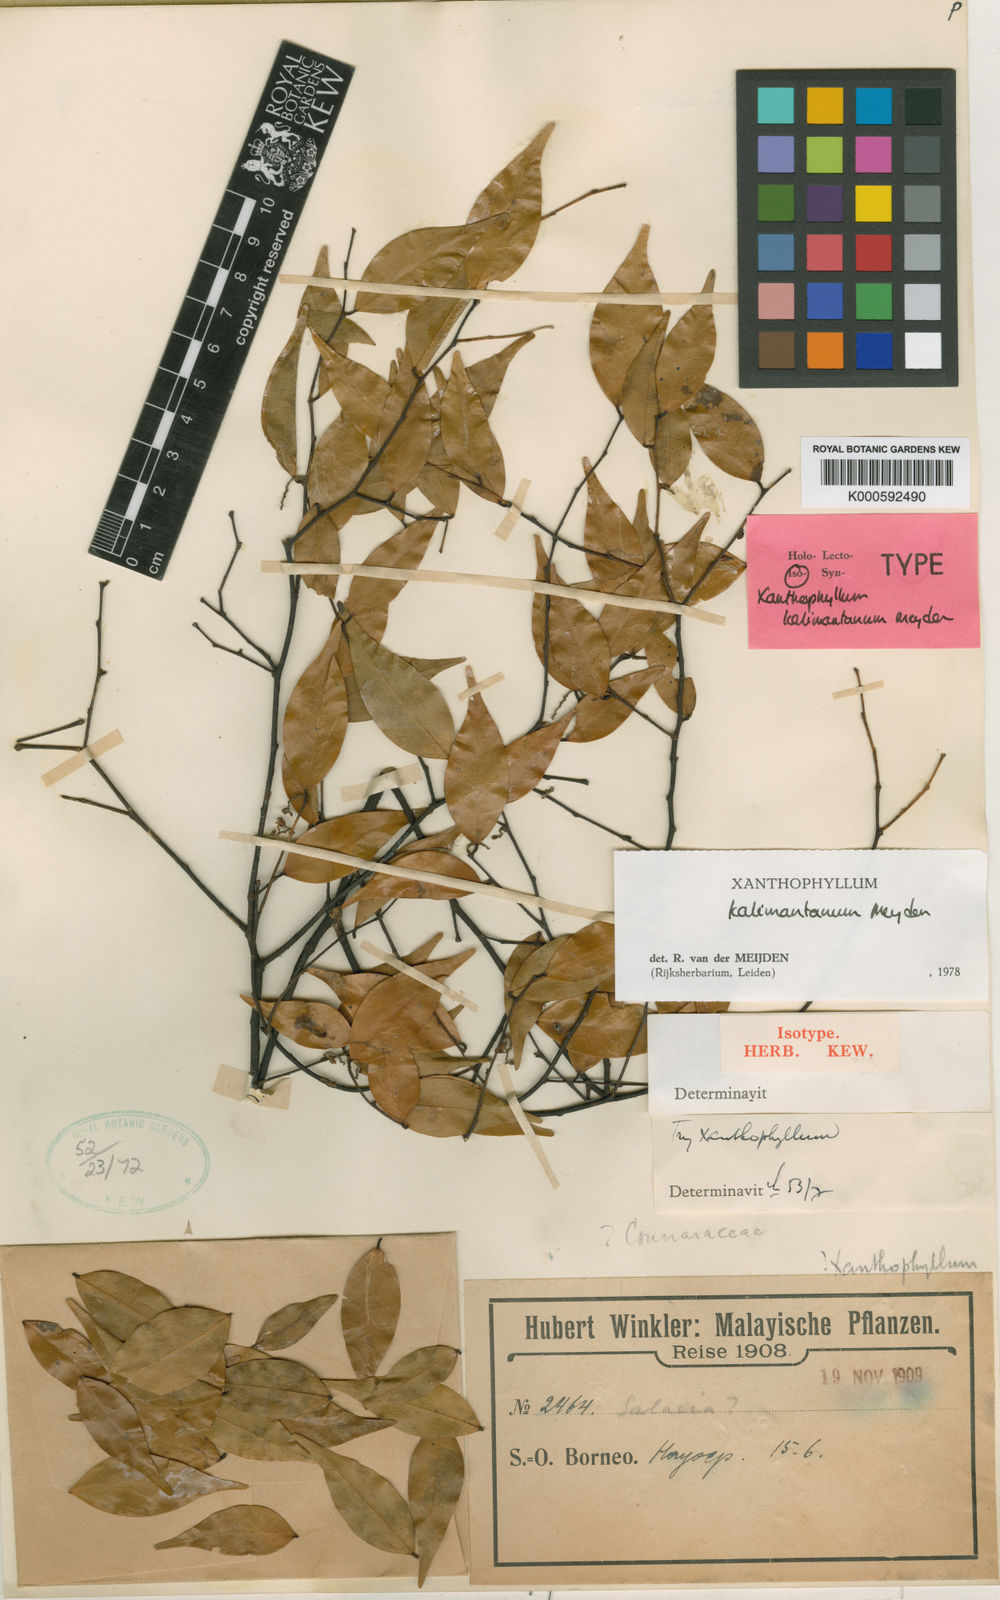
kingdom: Plantae
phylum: Tracheophyta
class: Magnoliopsida
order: Fabales
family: Polygalaceae
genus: Xanthophyllum
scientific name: Xanthophyllum ecarinatum
